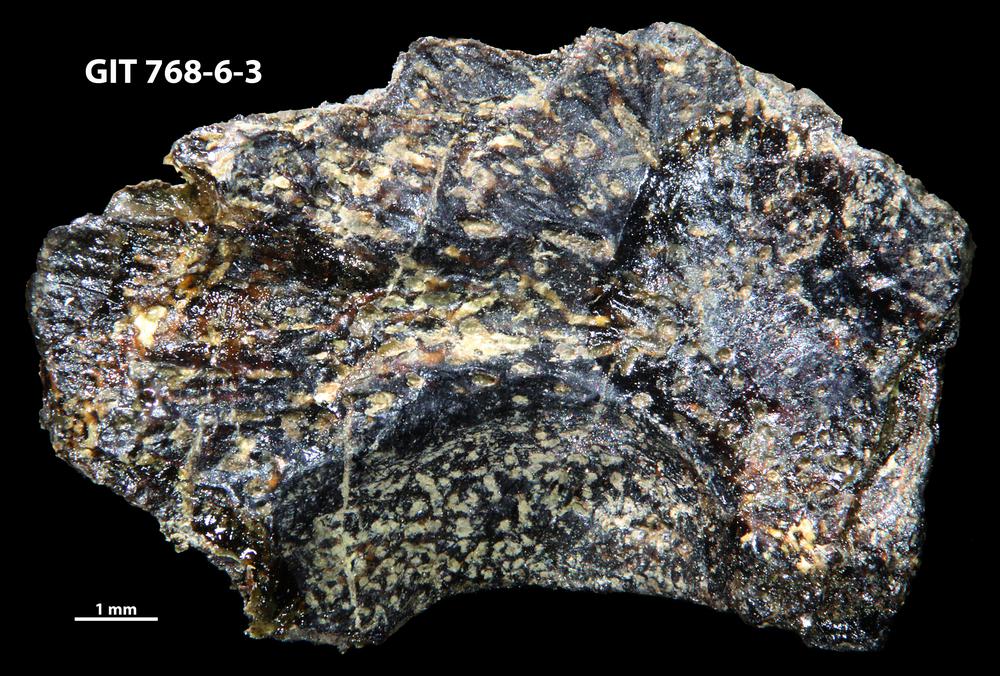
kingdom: Animalia
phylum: Chordata
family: Holonematidae
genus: Groenlandaspis
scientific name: Groenlandaspis
